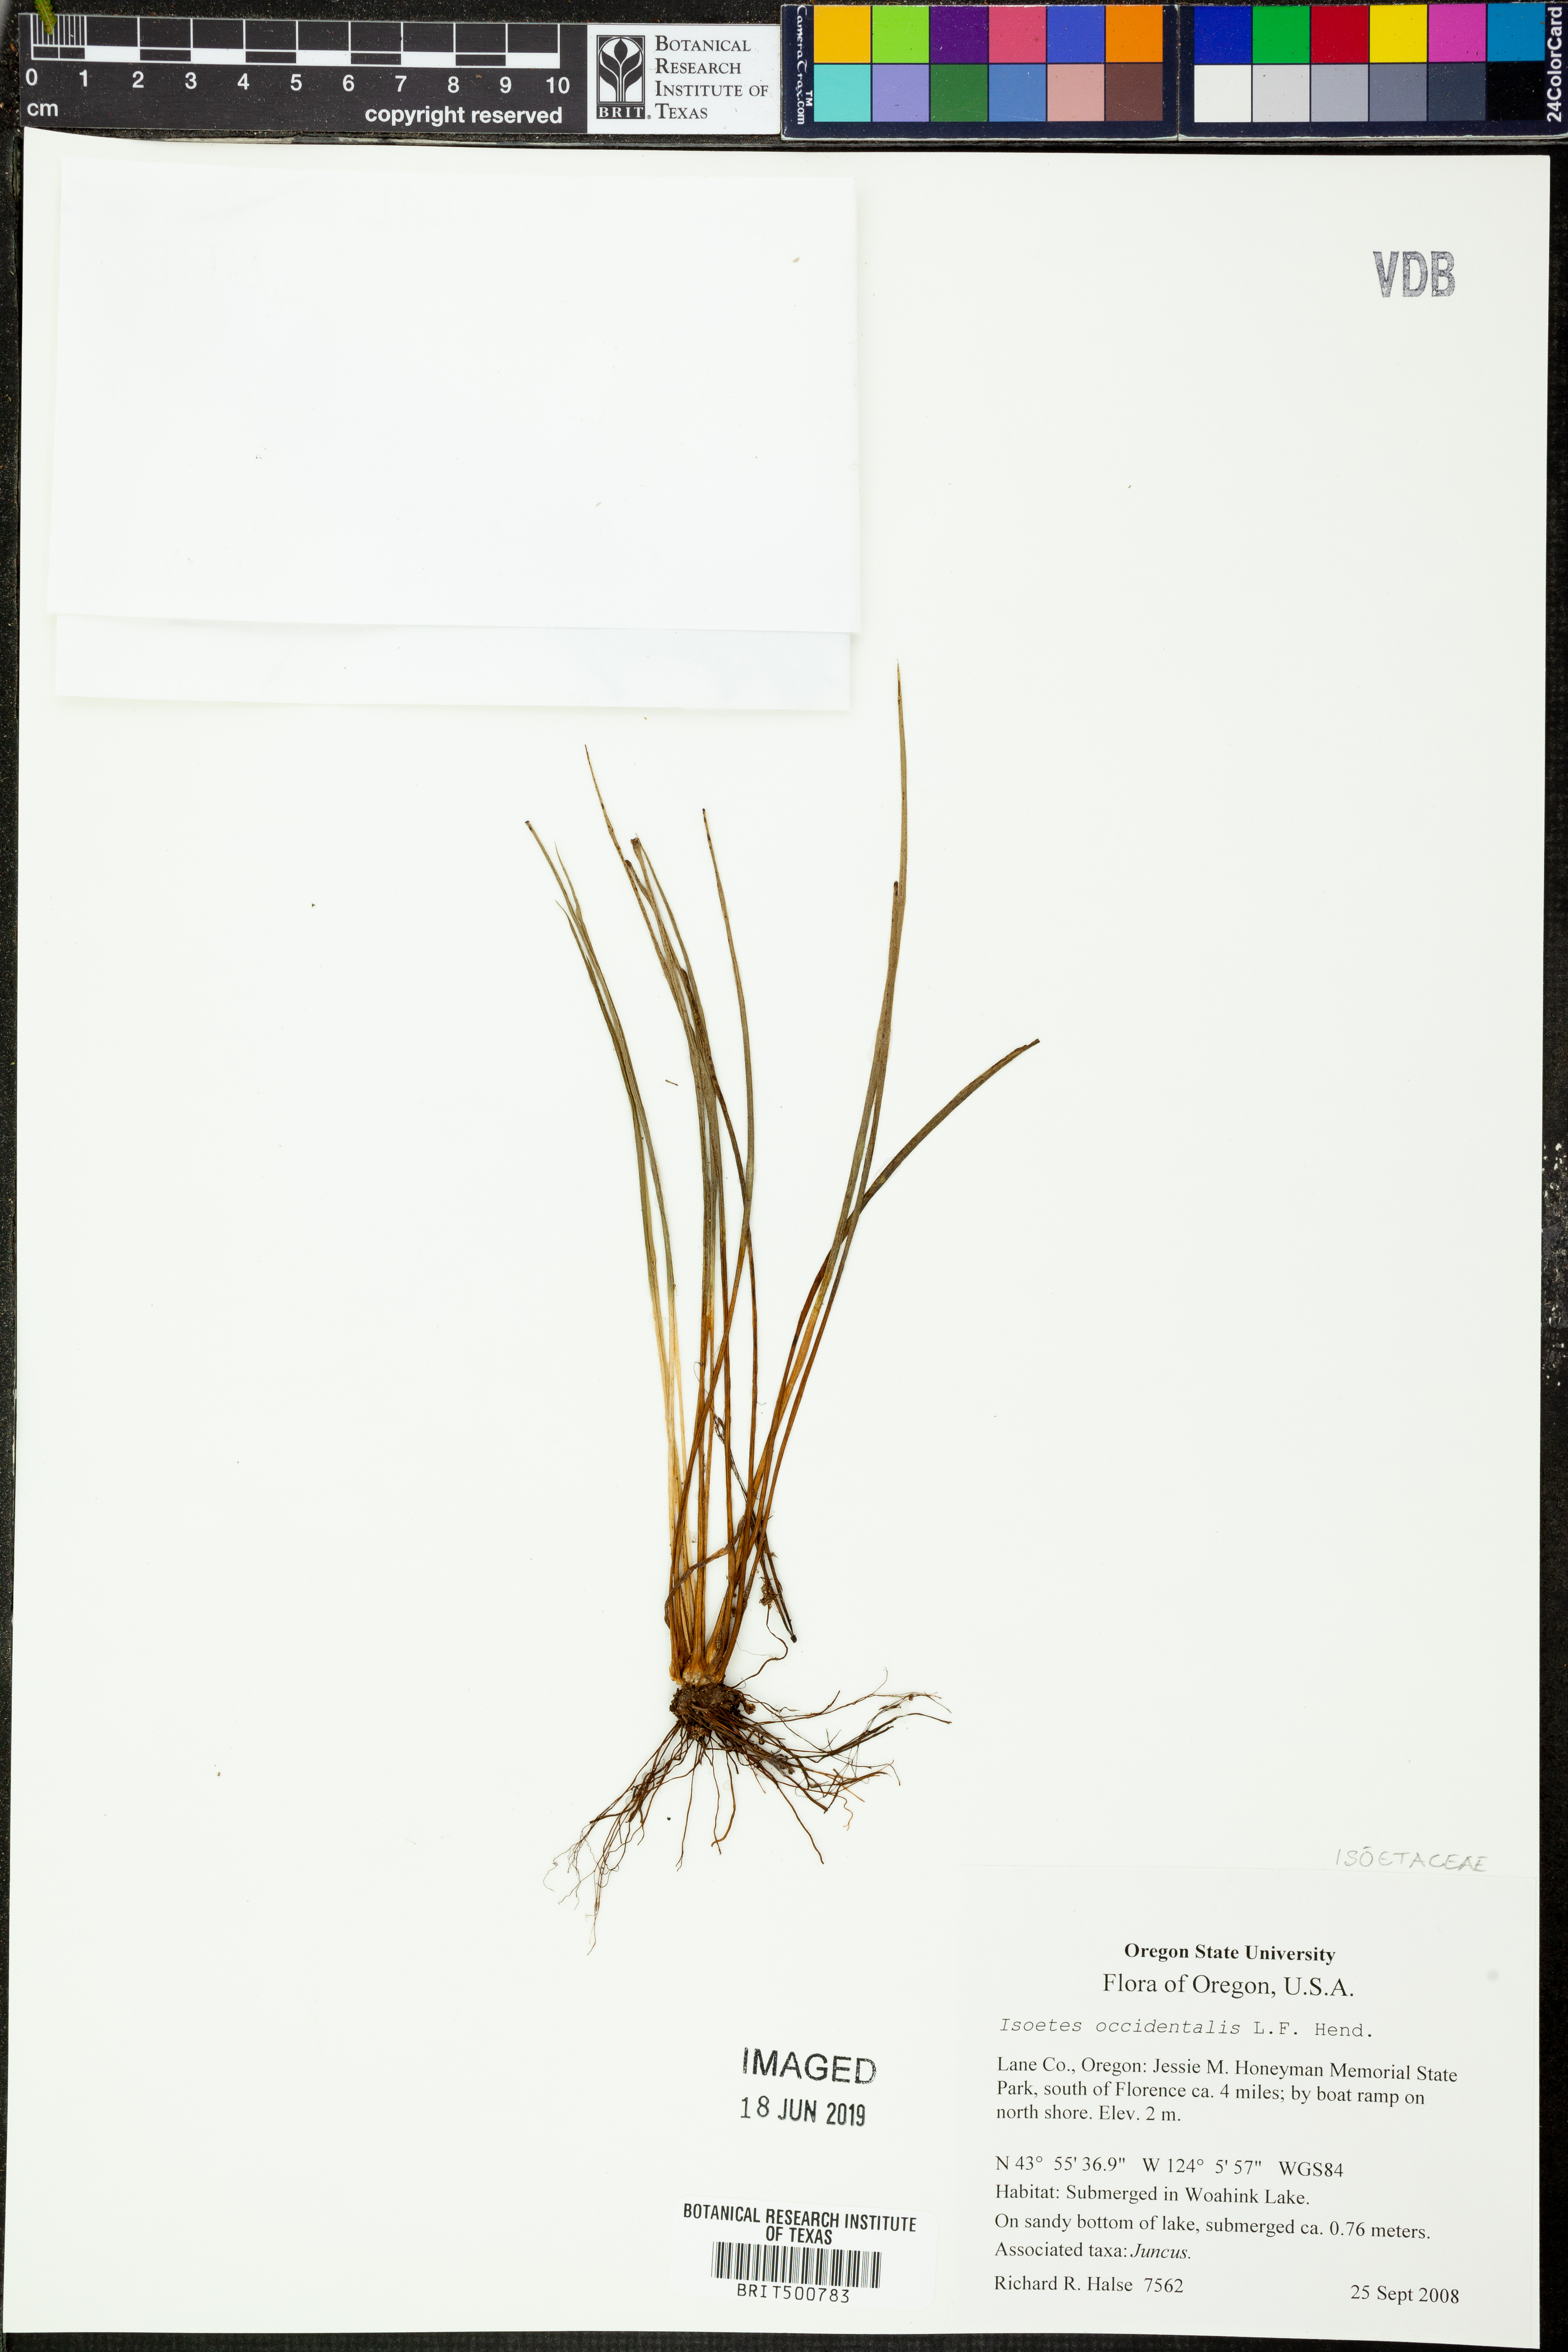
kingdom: Plantae
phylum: Tracheophyta
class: Lycopodiopsida
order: Isoetales
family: Isoetaceae
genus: Isoetes
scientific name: Isoetes occidentalis
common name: Western quillwort
